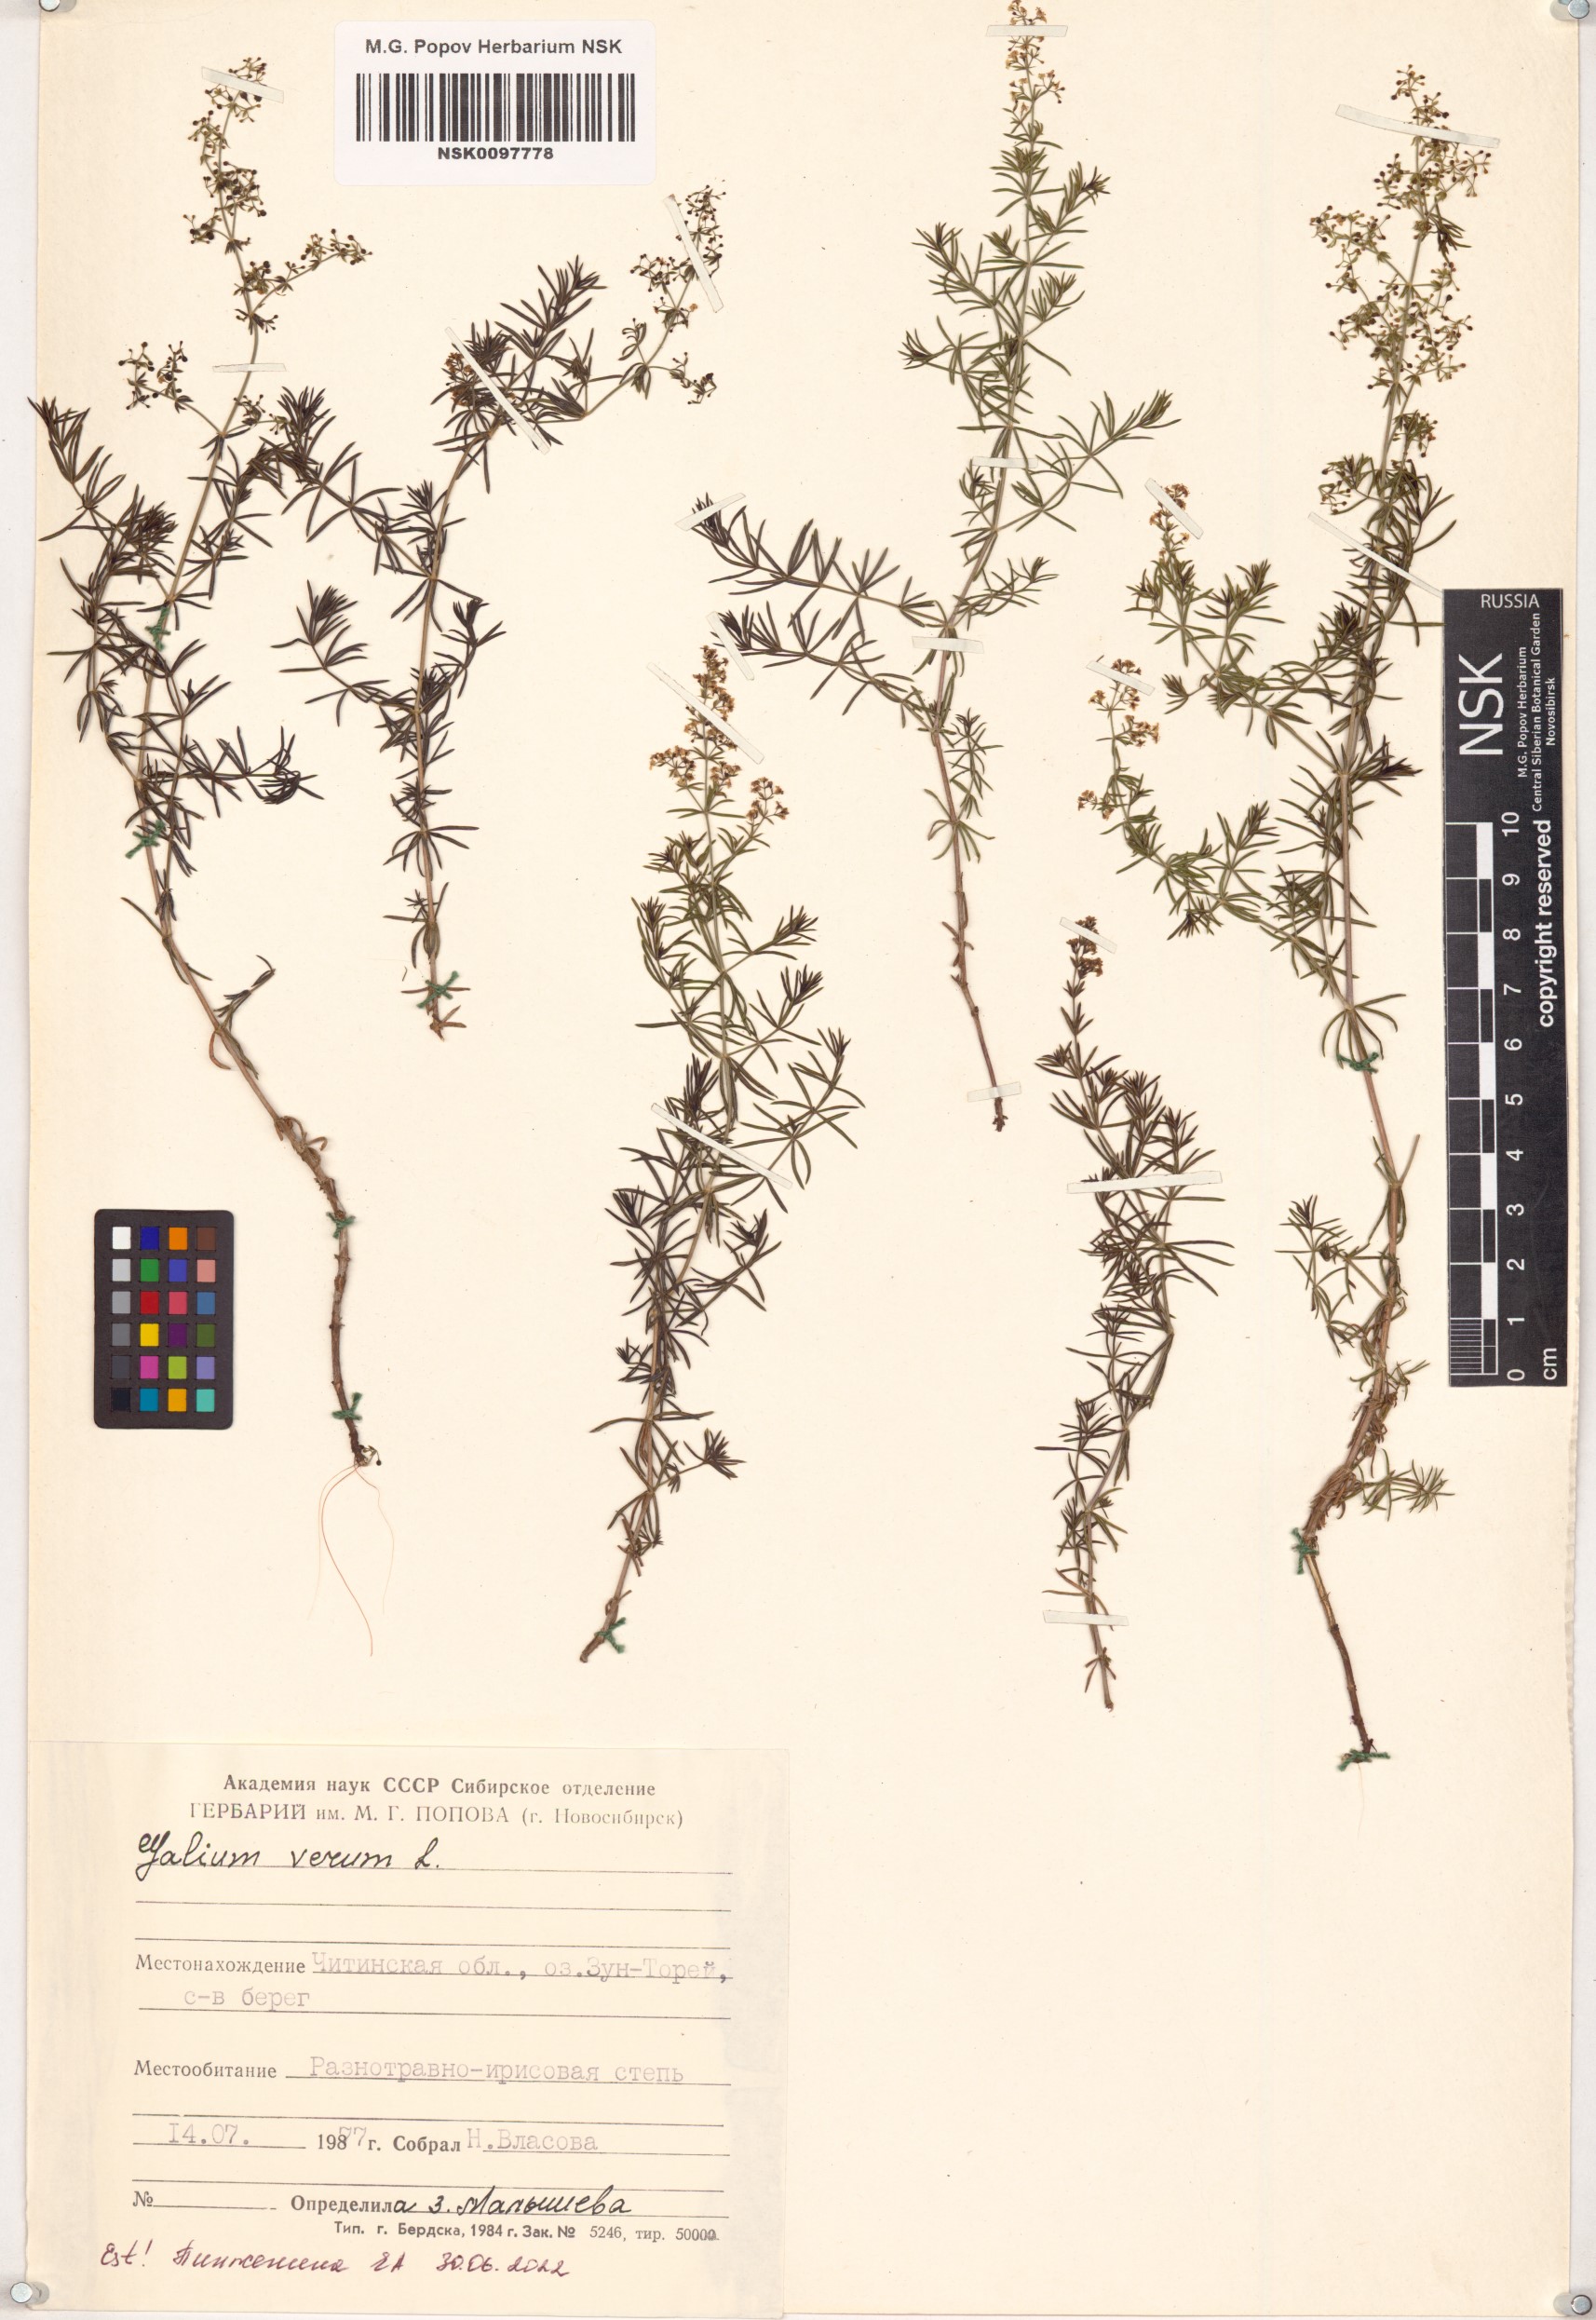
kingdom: Plantae
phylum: Tracheophyta
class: Magnoliopsida
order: Gentianales
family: Rubiaceae
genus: Galium
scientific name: Galium verum
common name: Lady's bedstraw
